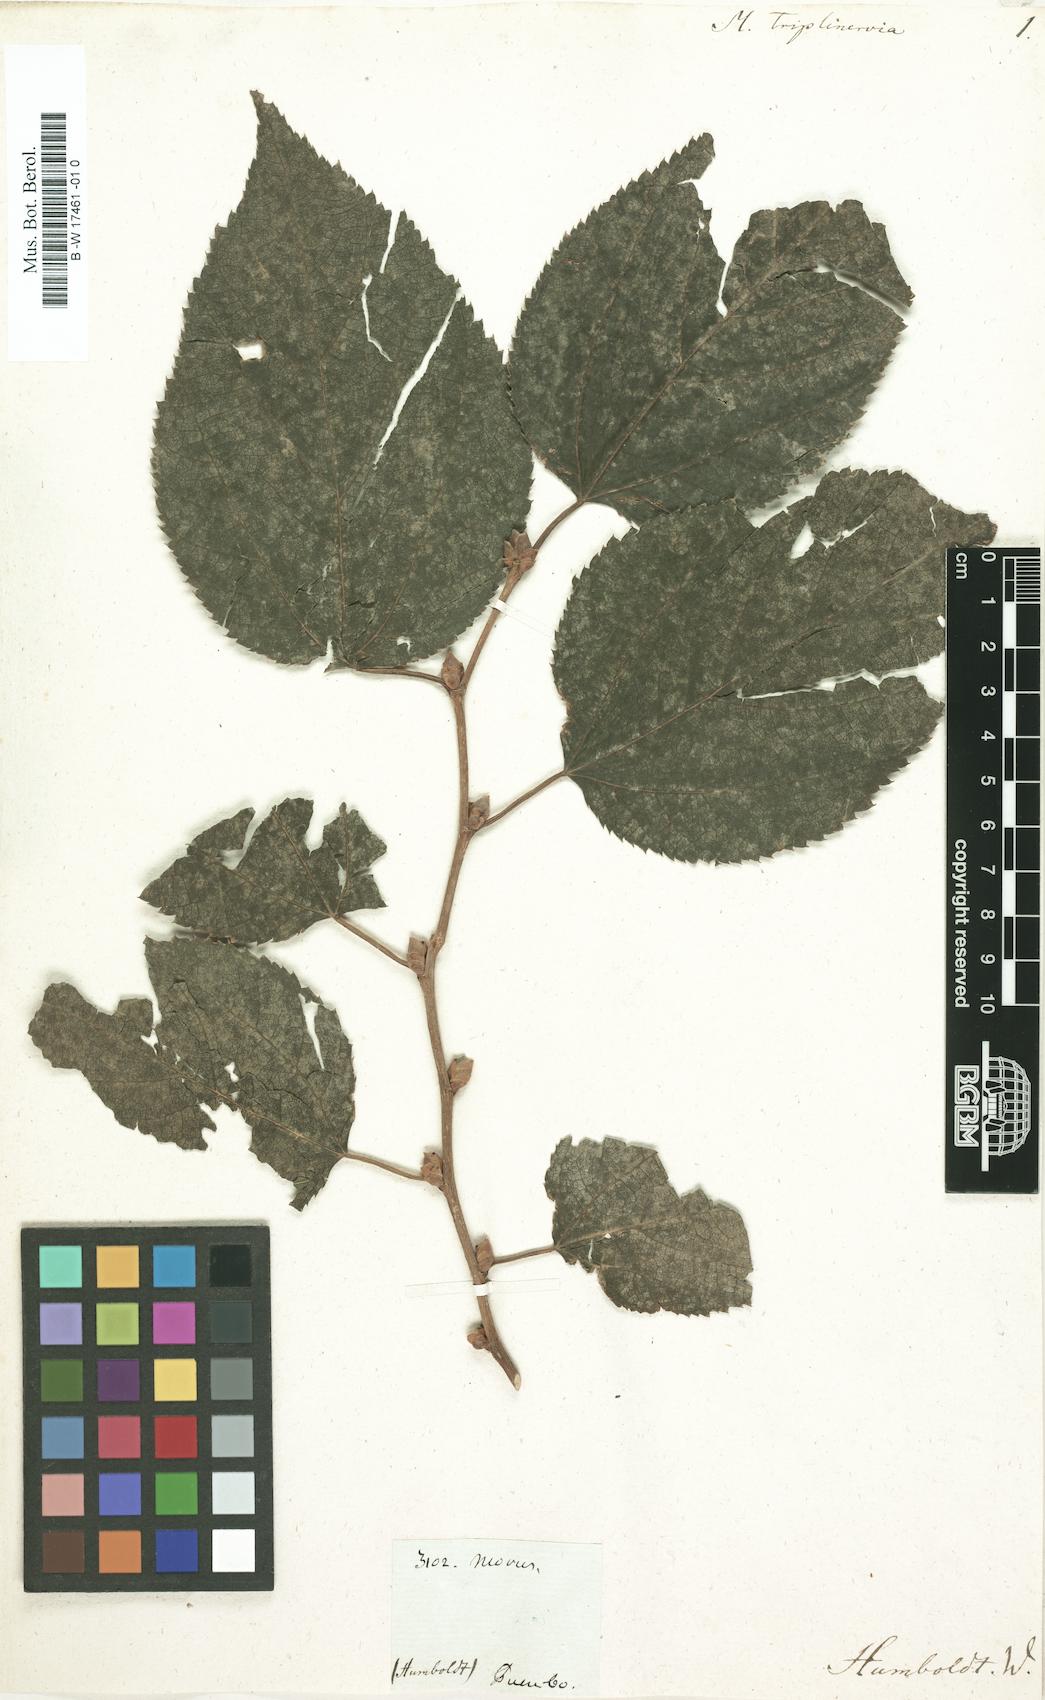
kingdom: Plantae
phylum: Tracheophyta
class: Magnoliopsida
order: Rosales
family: Moraceae
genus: Morus
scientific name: Morus
